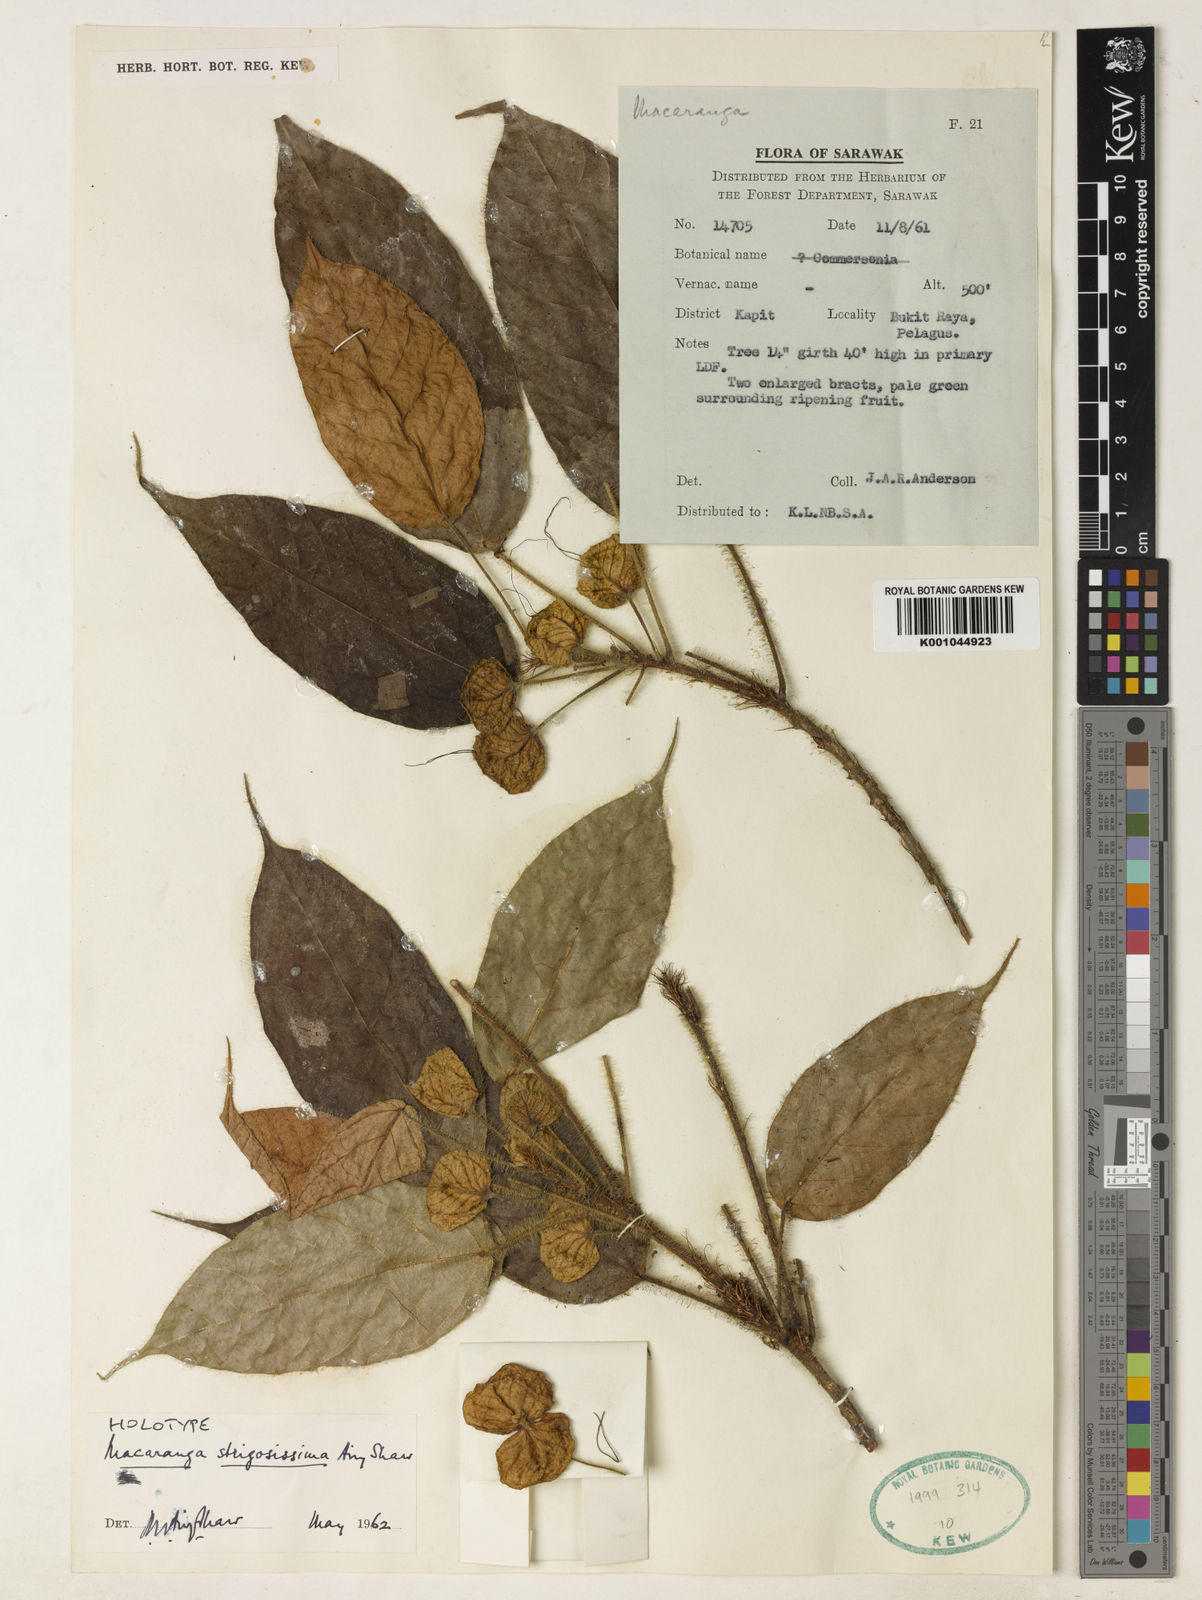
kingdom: Plantae
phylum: Tracheophyta
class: Magnoliopsida
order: Malpighiales
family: Euphorbiaceae
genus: Macaranga
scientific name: Macaranga strigosissima
